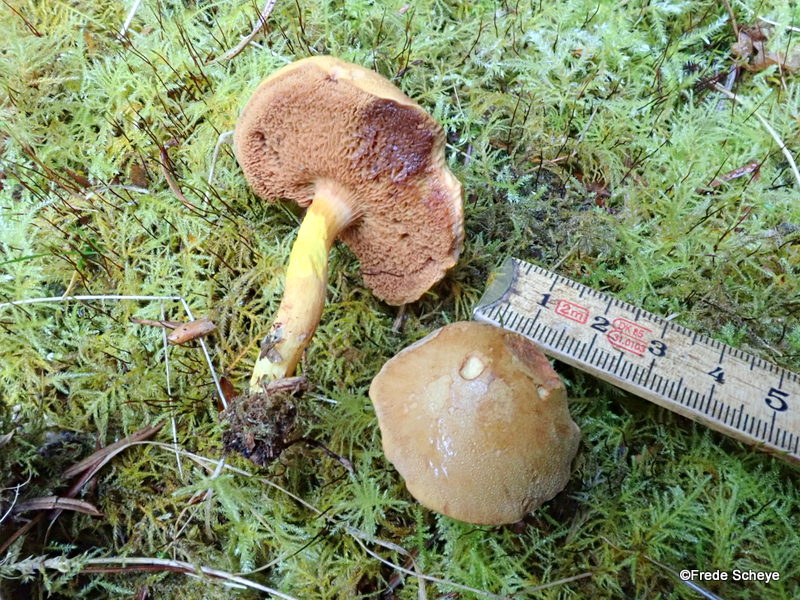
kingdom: Fungi
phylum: Basidiomycota
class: Agaricomycetes
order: Boletales
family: Boletaceae
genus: Chalciporus
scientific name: Chalciporus piperatus
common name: peberrørhat
